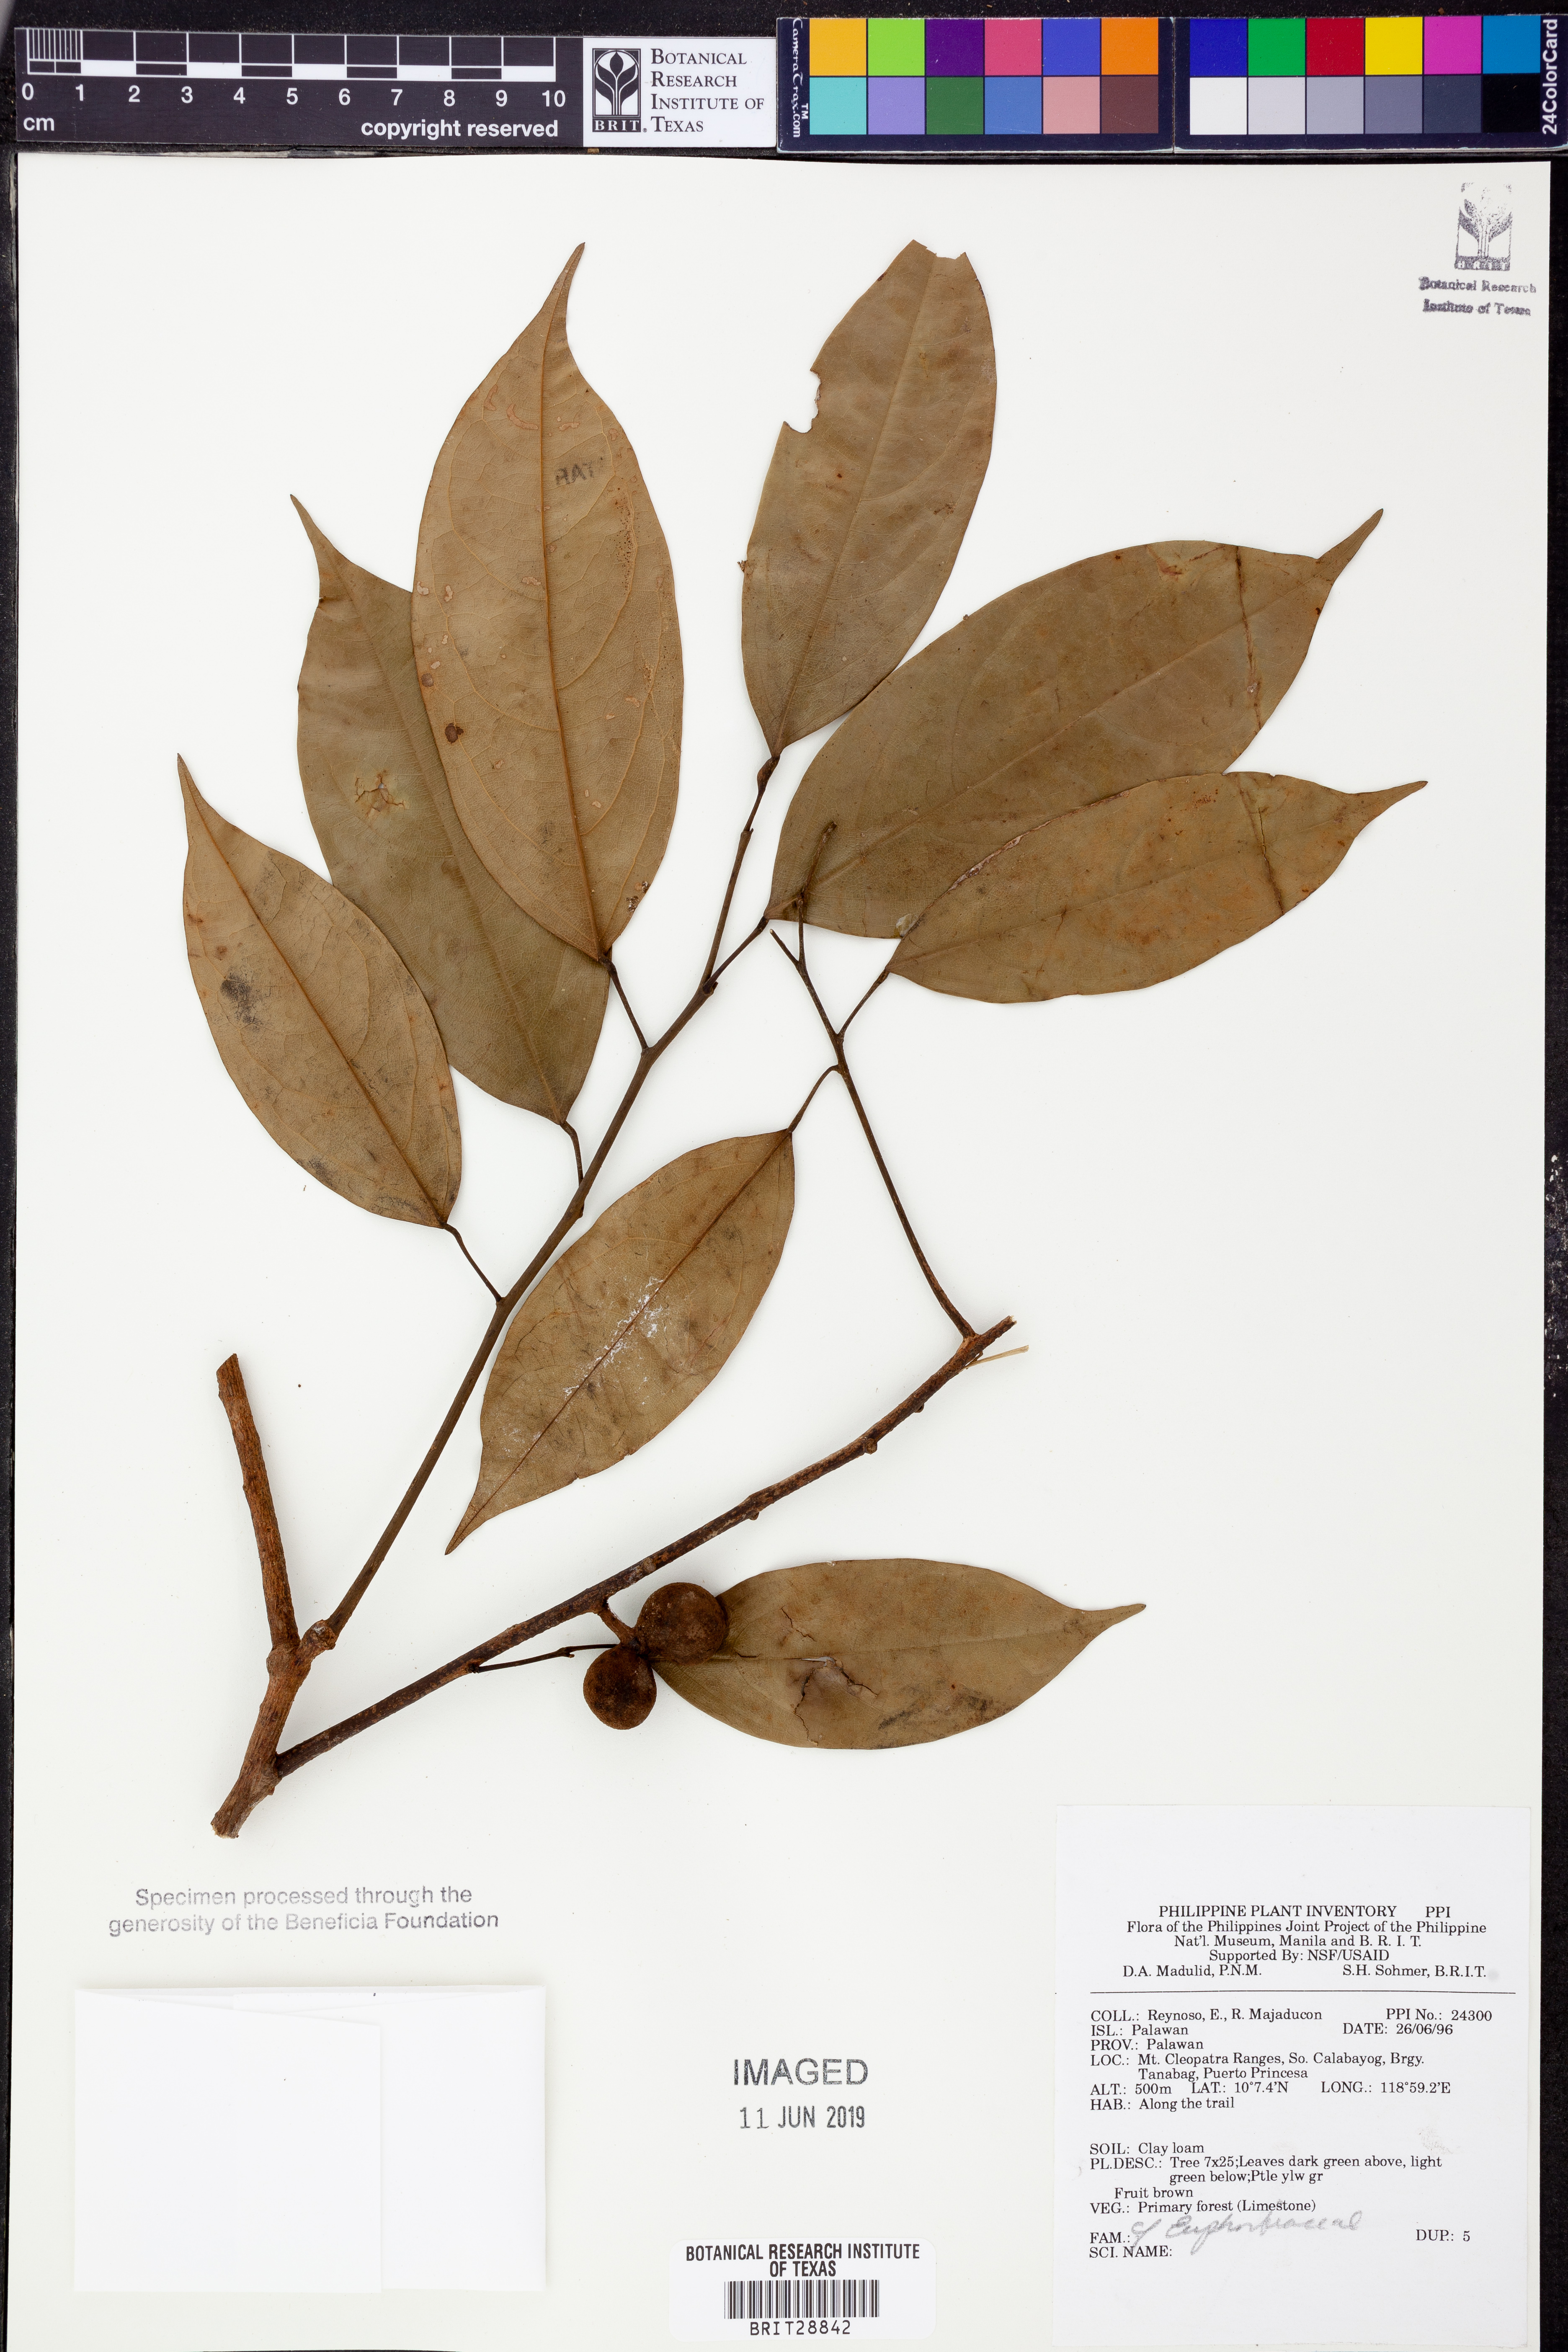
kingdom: Plantae
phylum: Tracheophyta
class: Magnoliopsida
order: Malpighiales
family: Euphorbiaceae
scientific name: Euphorbiaceae
